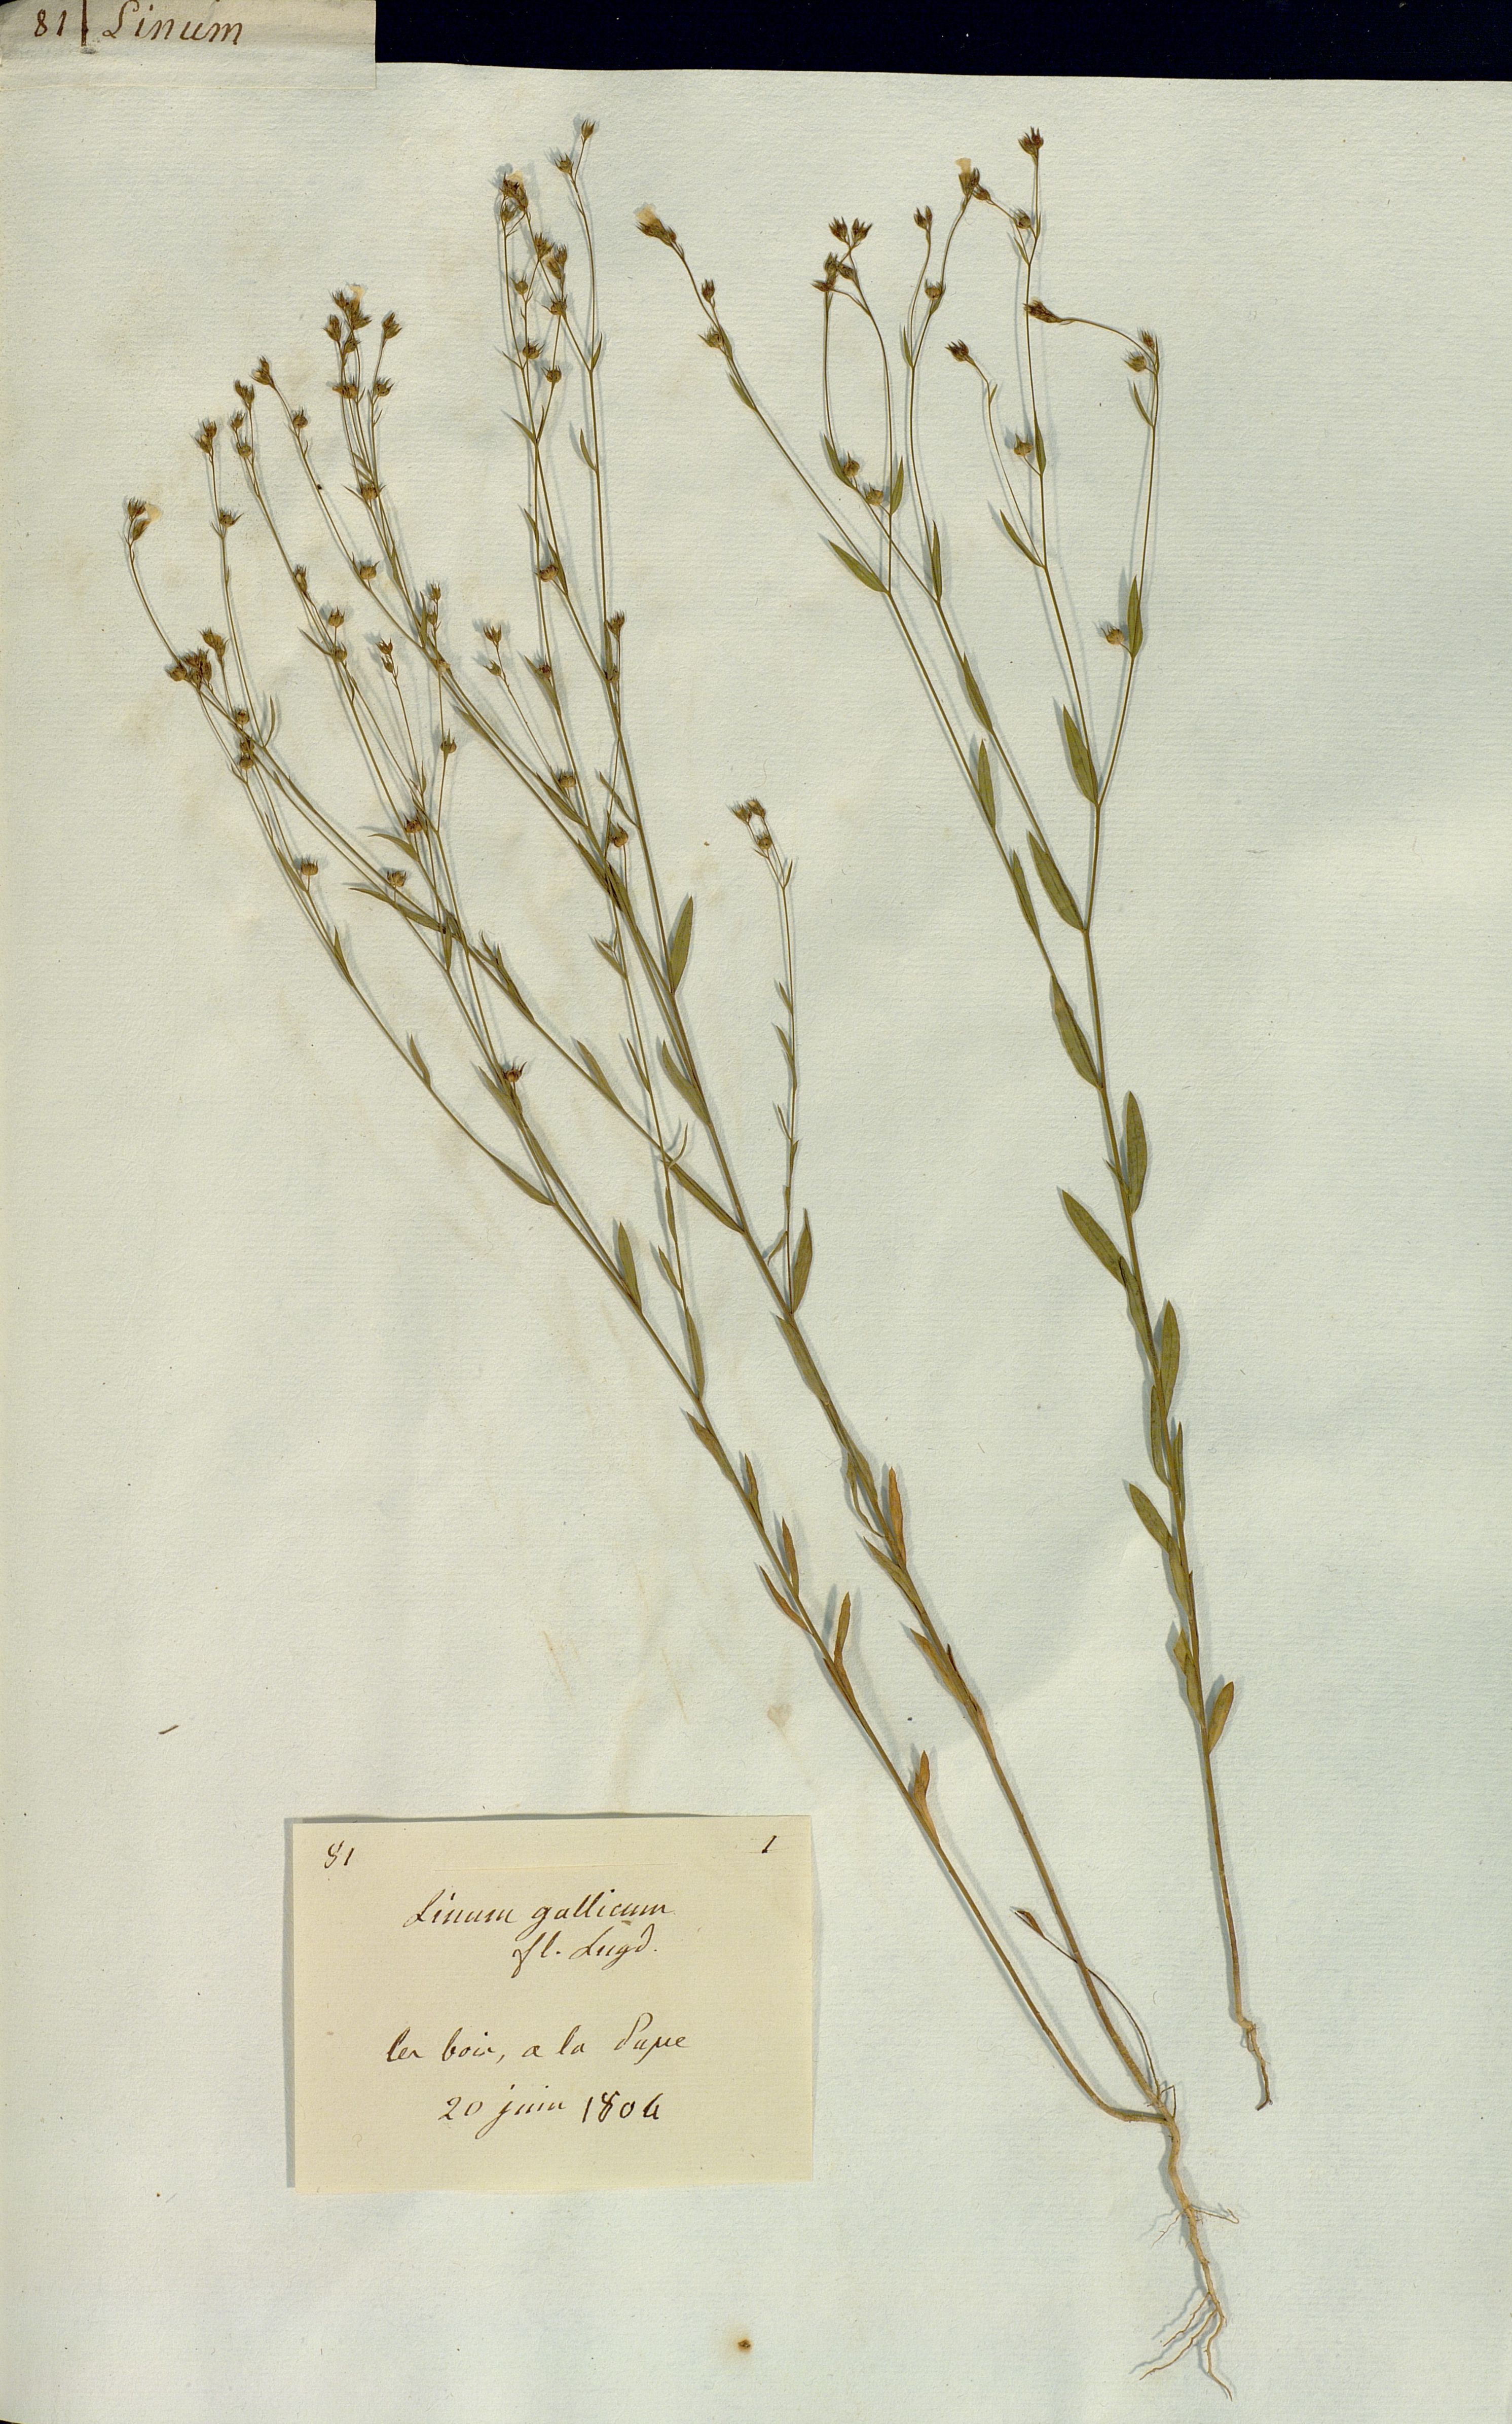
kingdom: Plantae
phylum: Tracheophyta
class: Magnoliopsida
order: Malpighiales
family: Linaceae
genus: Linum
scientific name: Linum
